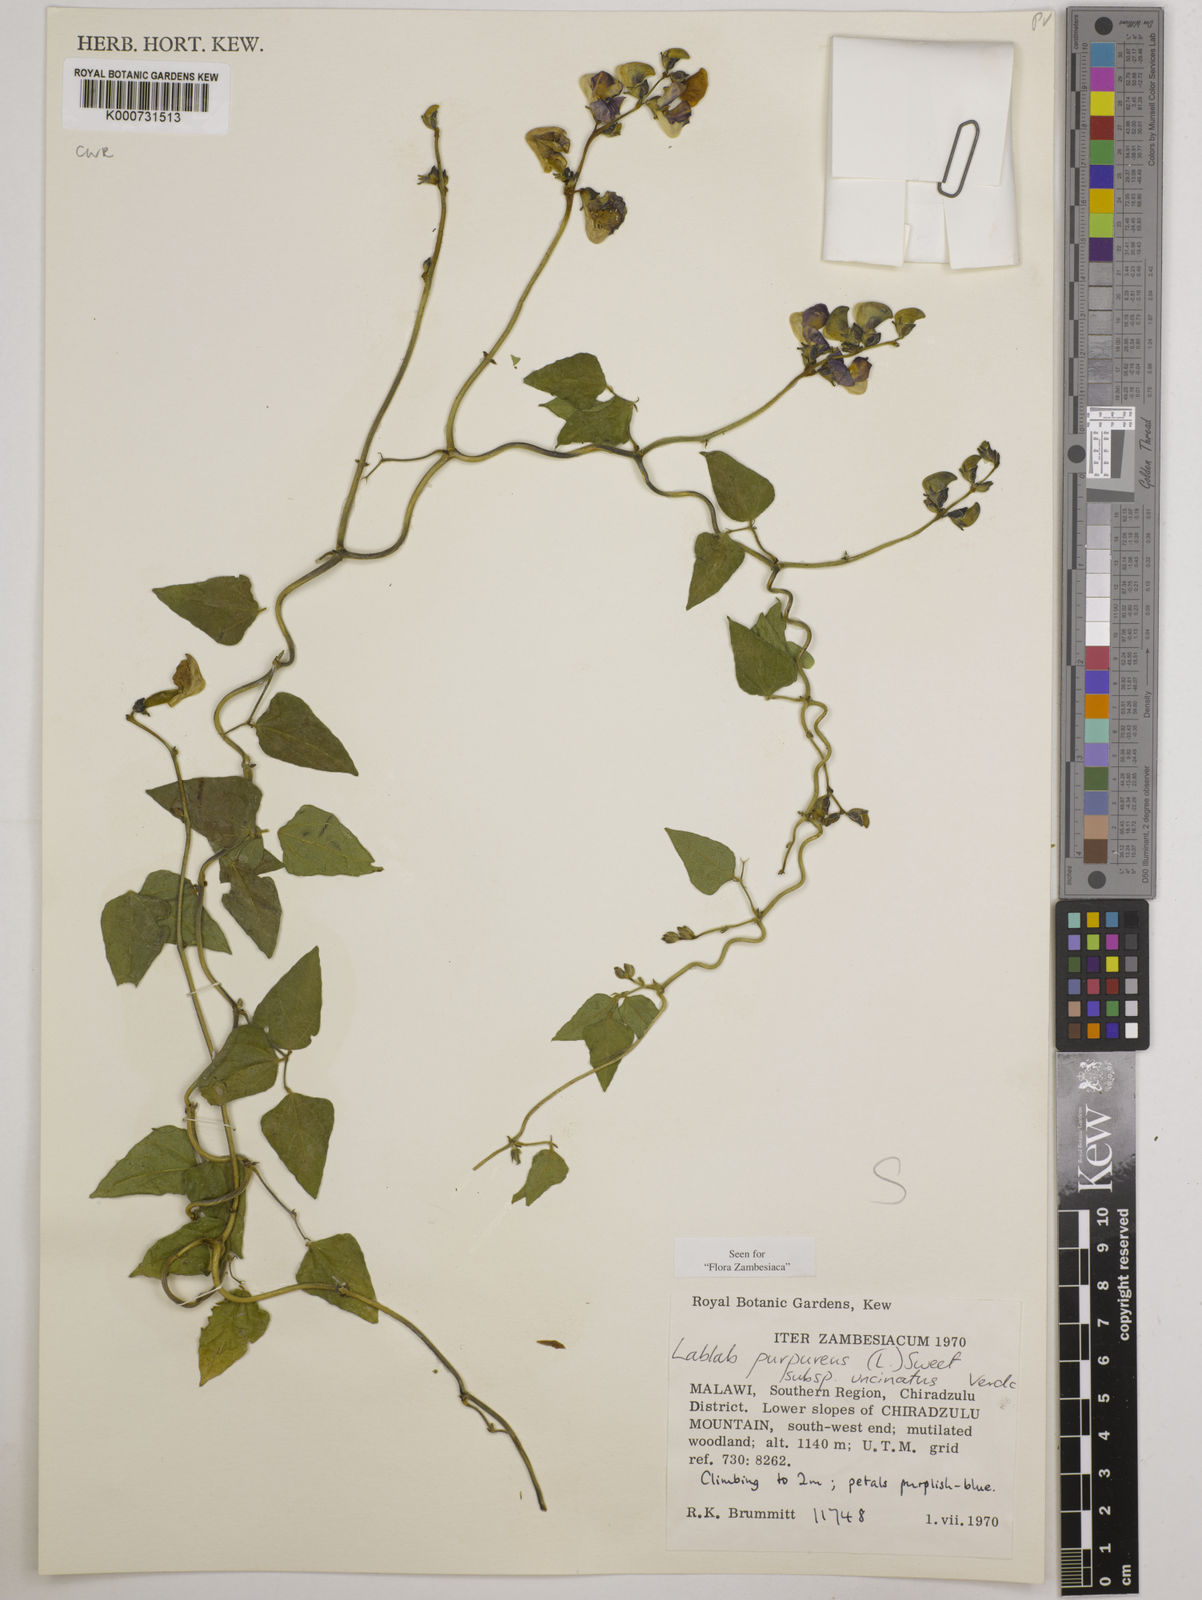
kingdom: Plantae
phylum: Tracheophyta
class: Magnoliopsida
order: Fabales
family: Fabaceae
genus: Lablab
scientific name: Lablab purpureus
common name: Lablab-bean
